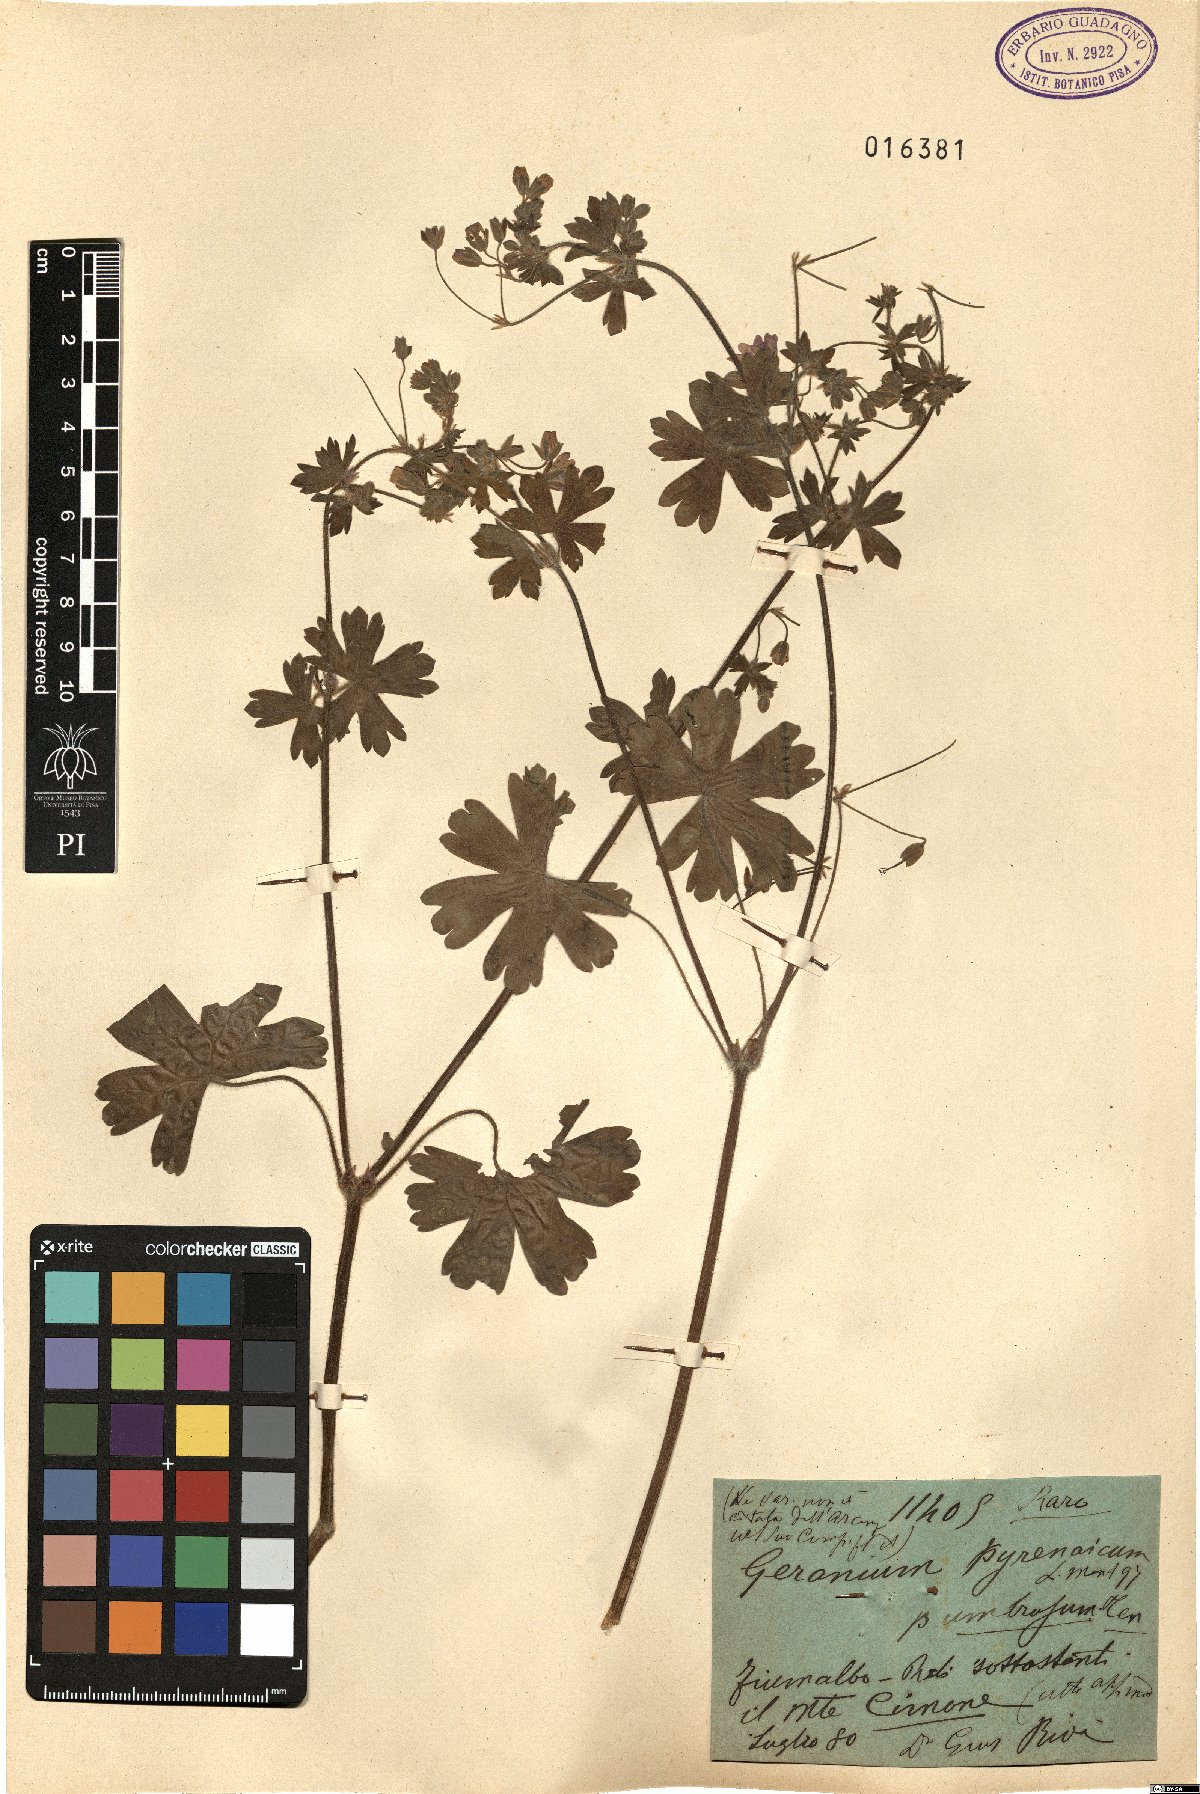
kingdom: Plantae
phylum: Tracheophyta
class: Magnoliopsida
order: Geraniales
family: Geraniaceae
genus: Geranium
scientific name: Geranium pyrenaicum
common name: Hedgerow crane's-bill
